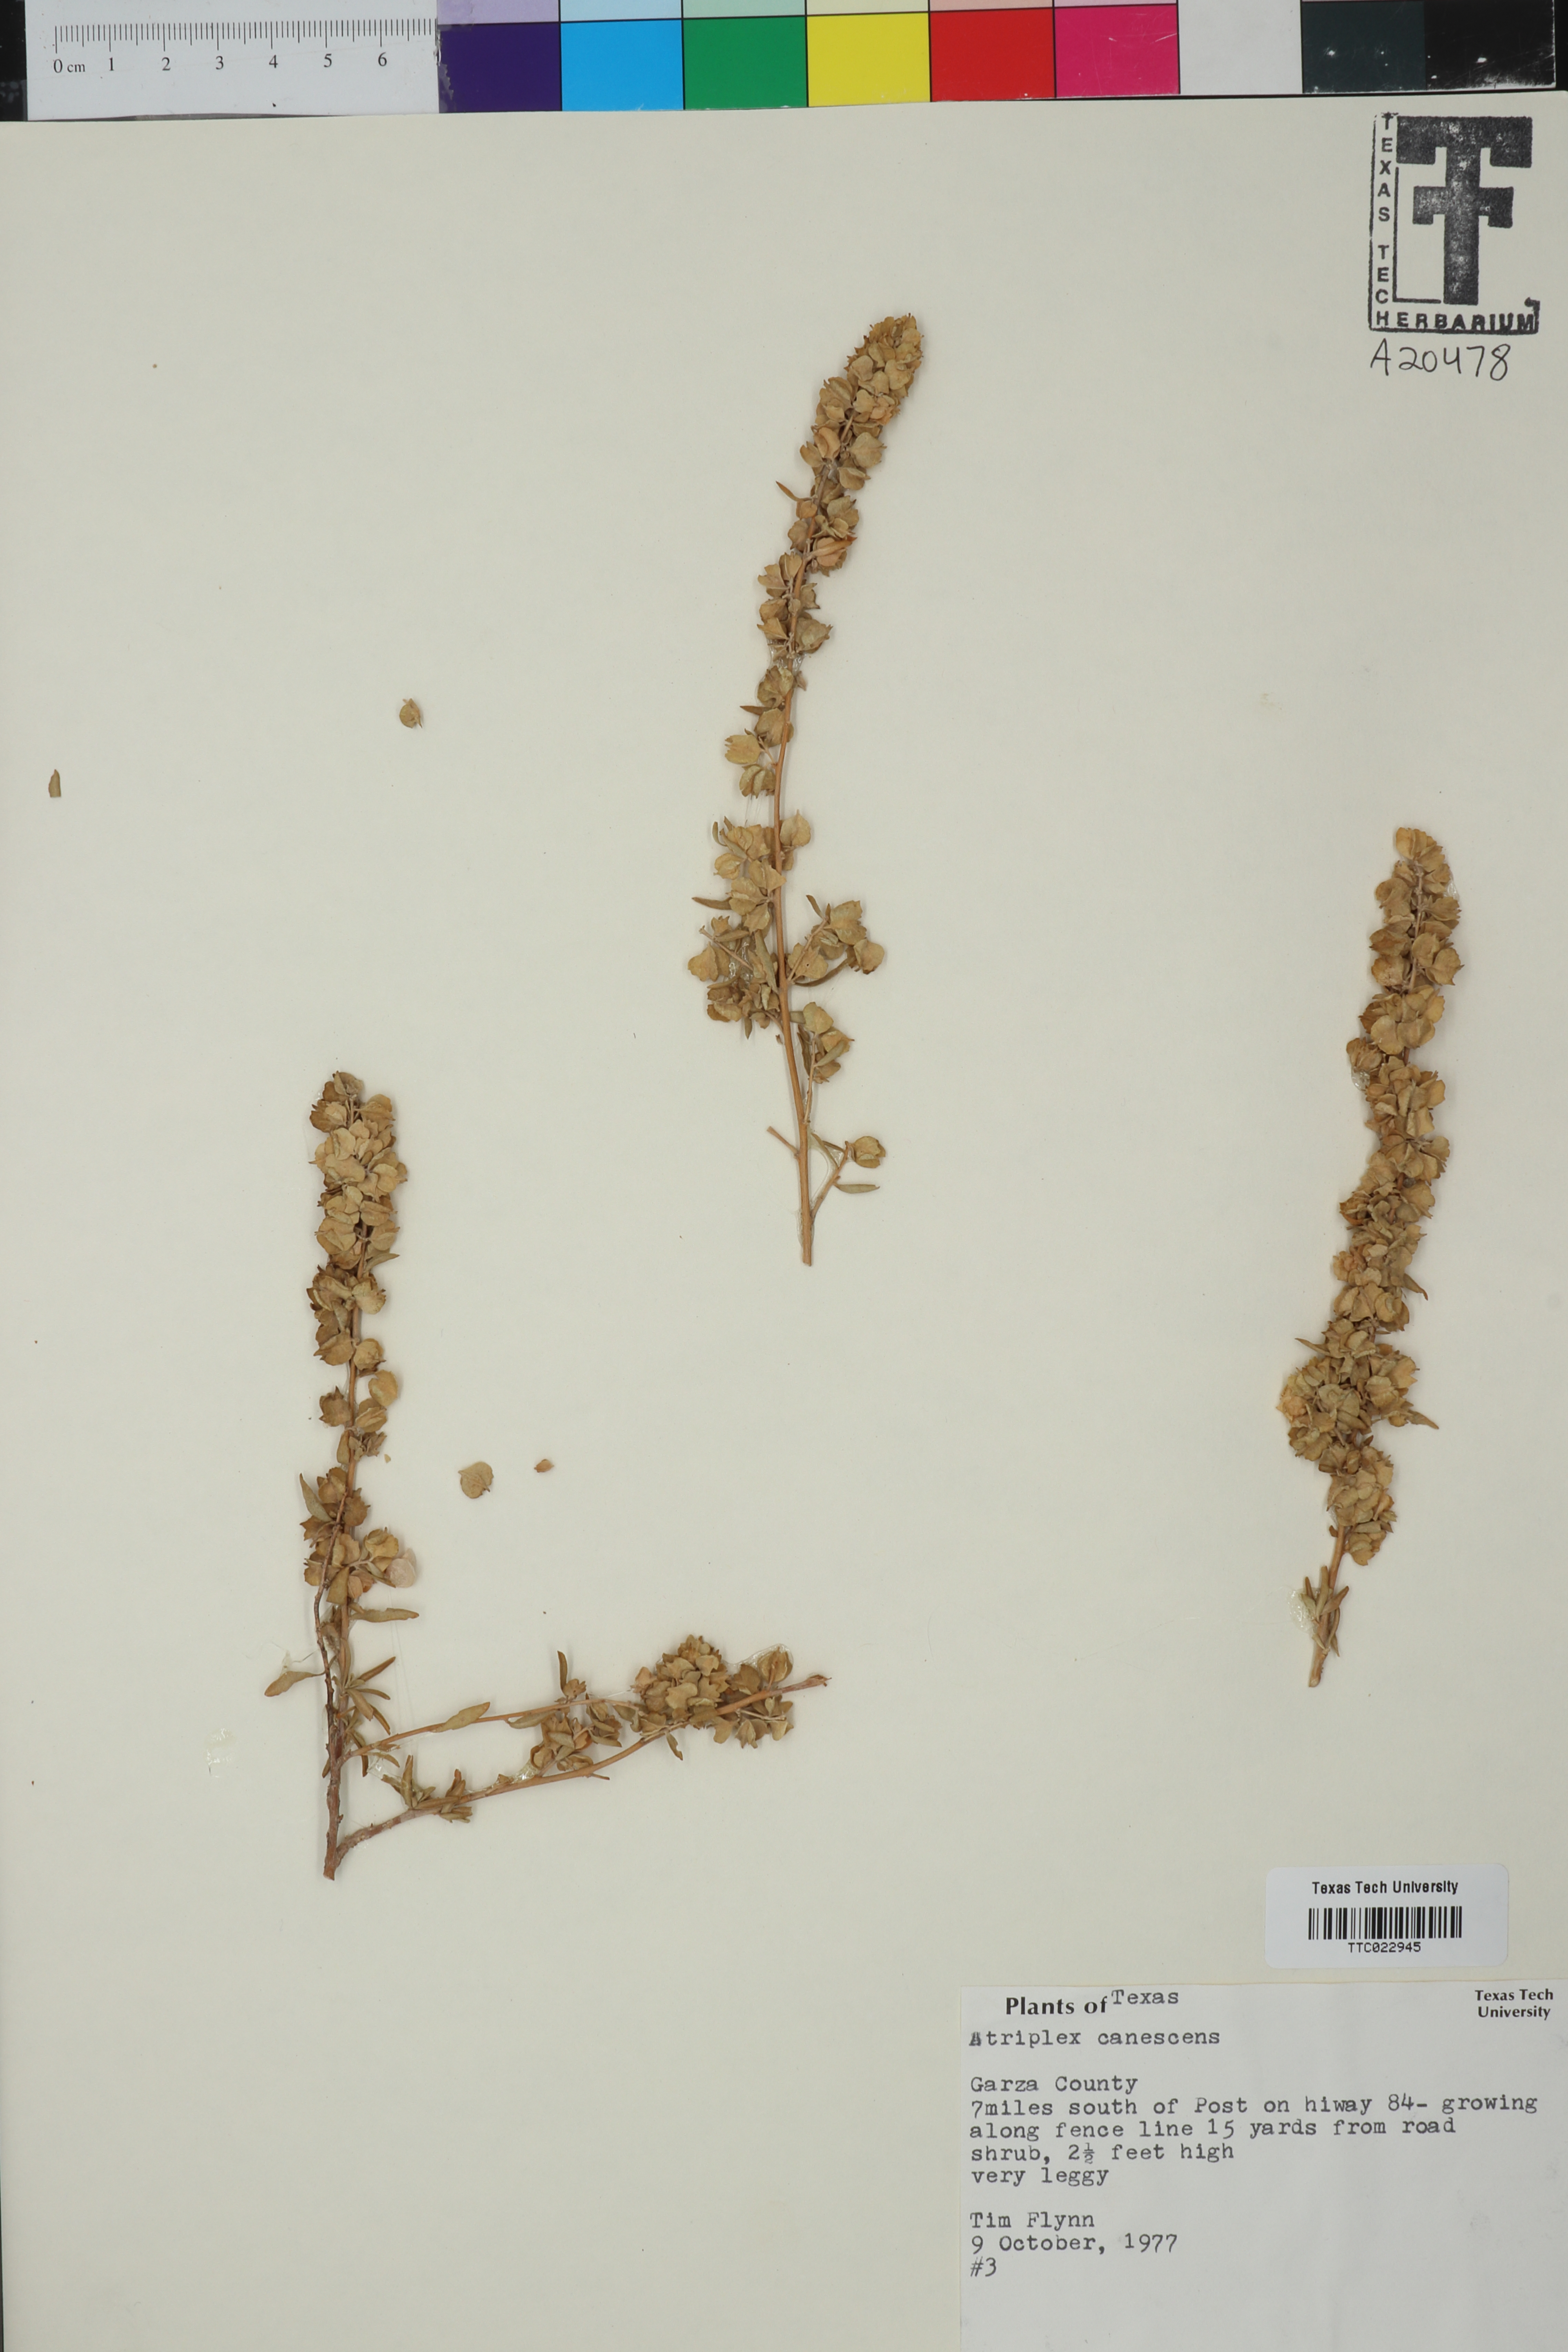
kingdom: Plantae
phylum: Tracheophyta
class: Magnoliopsida
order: Caryophyllales
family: Amaranthaceae
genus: Atriplex
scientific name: Atriplex canescens
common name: Four-wing saltbush
